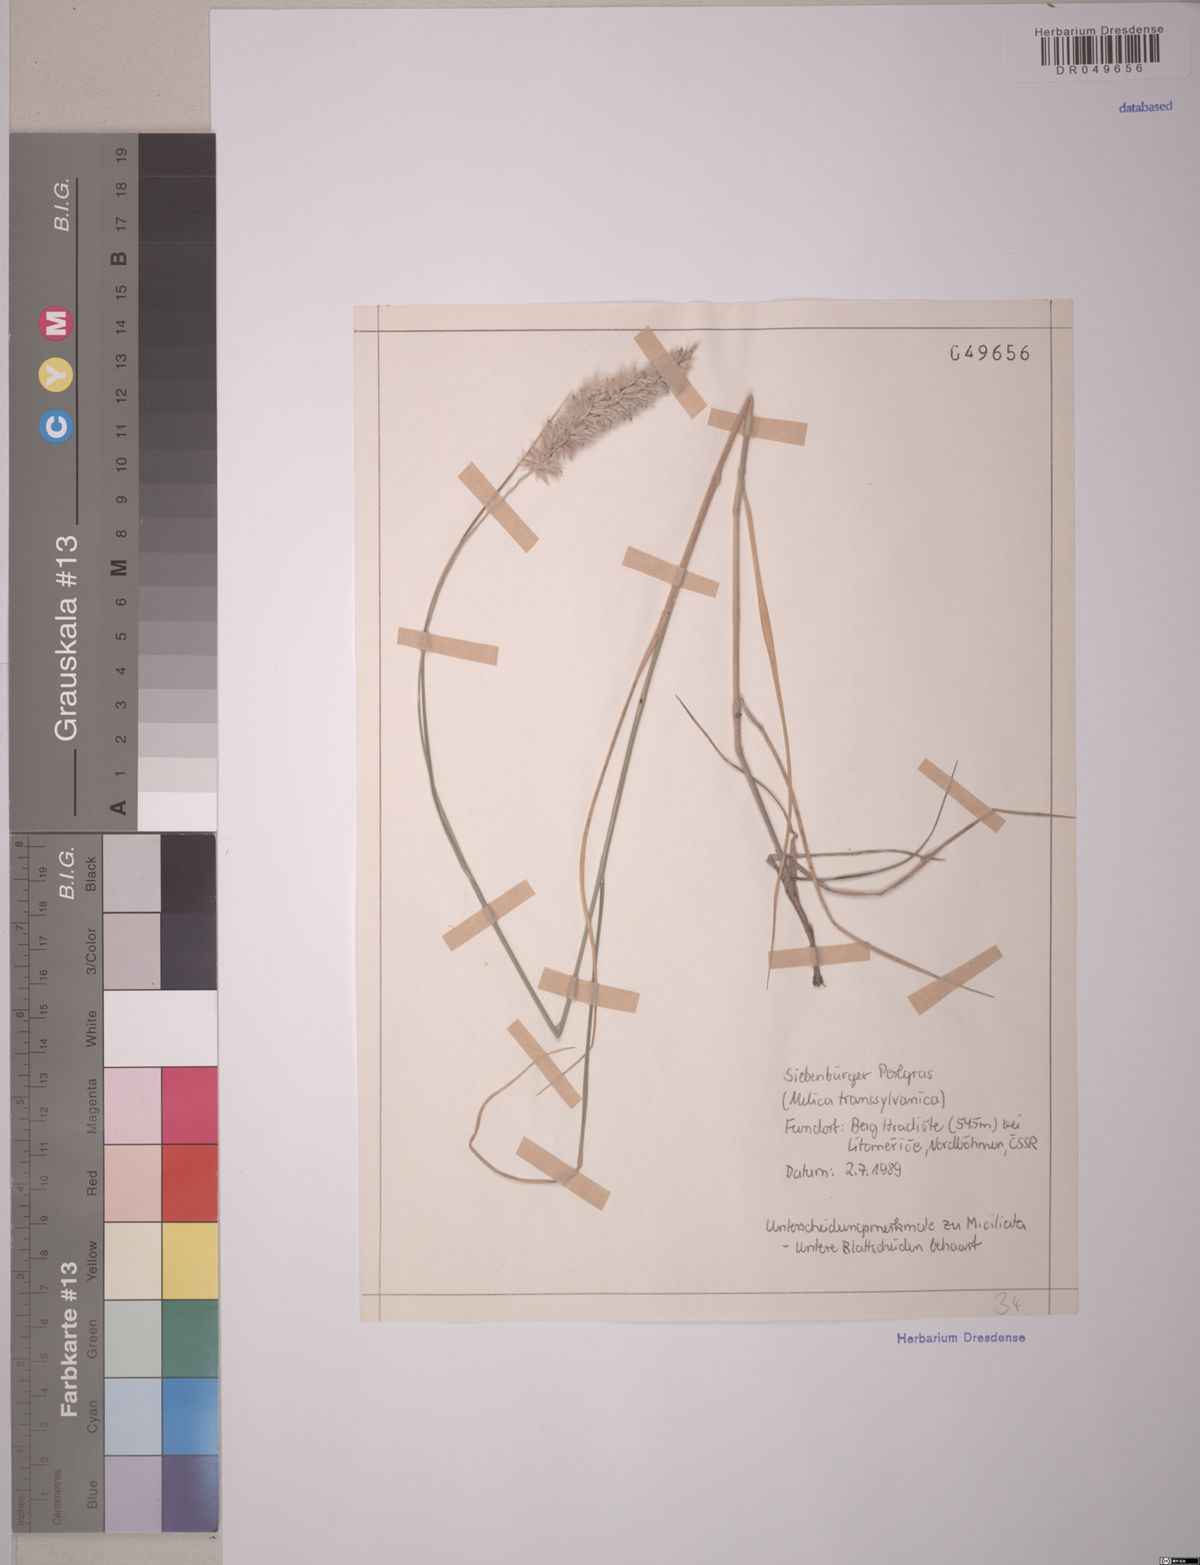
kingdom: Plantae
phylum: Tracheophyta
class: Liliopsida
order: Poales
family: Poaceae
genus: Melica
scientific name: Melica transsilvanica
